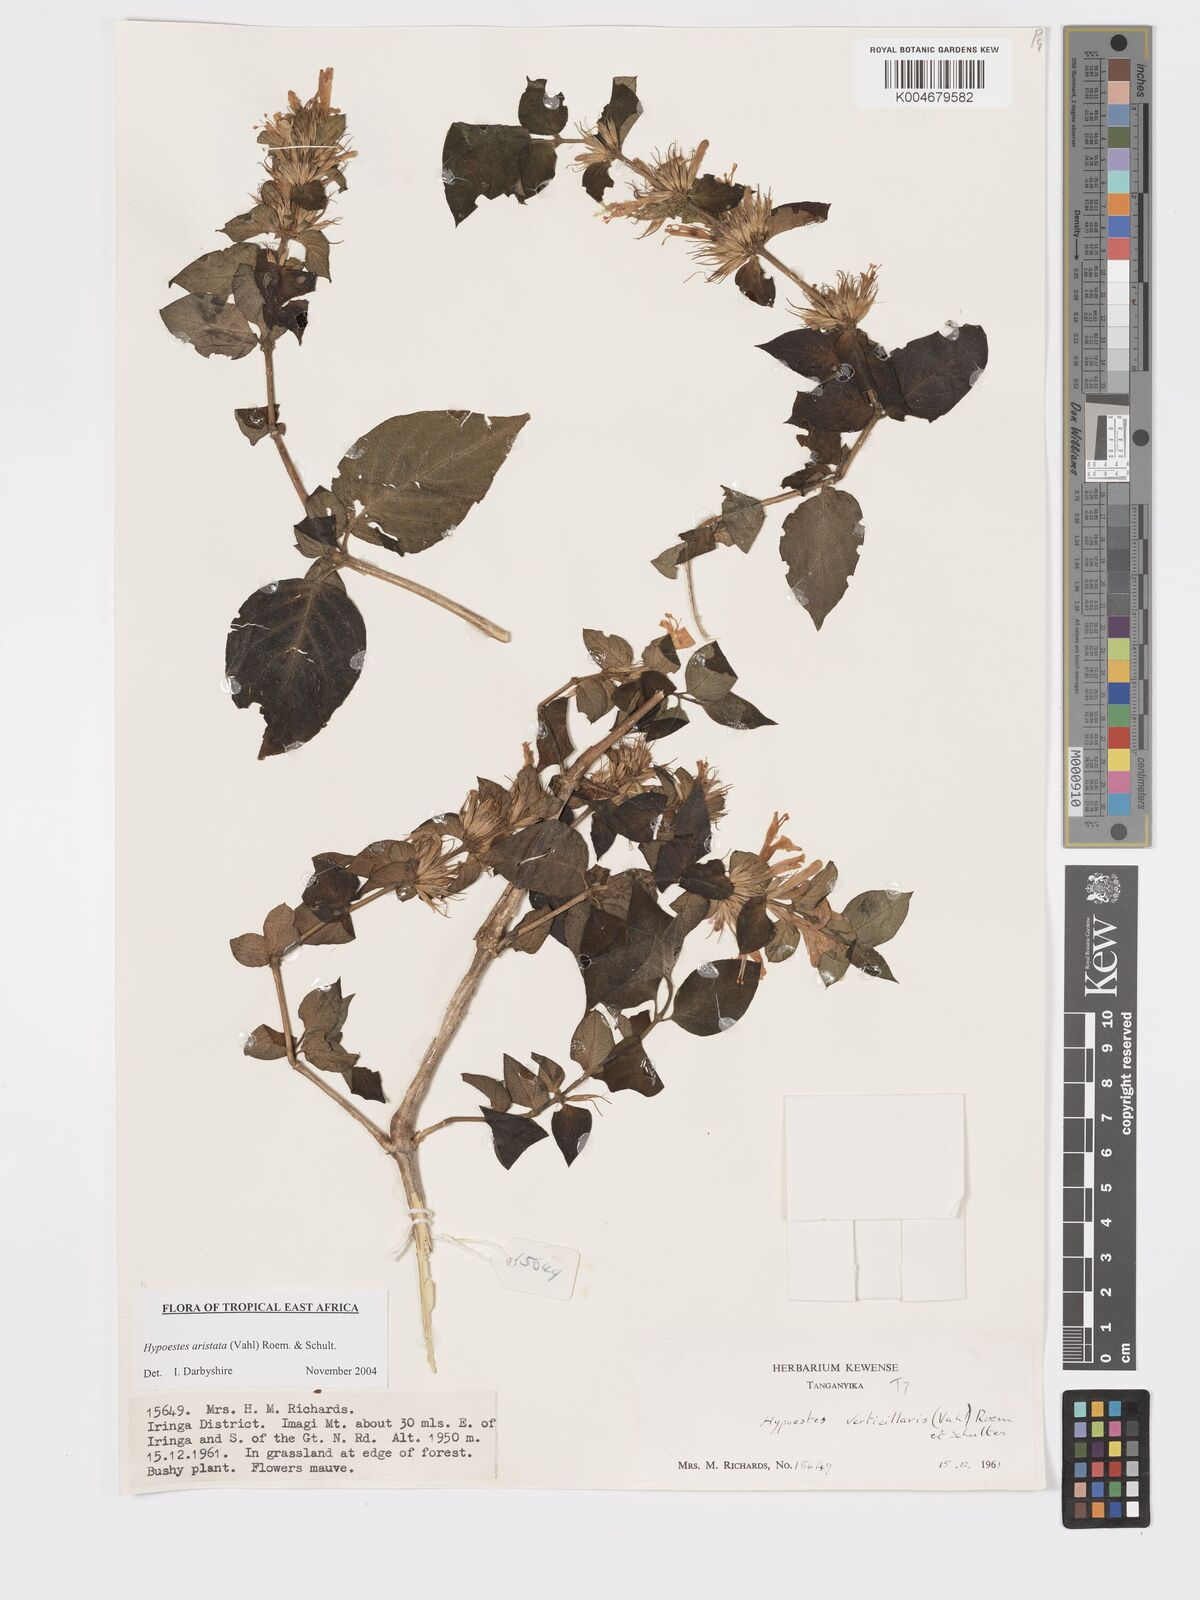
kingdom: Plantae
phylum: Tracheophyta
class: Magnoliopsida
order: Lamiales
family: Acanthaceae
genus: Hypoestes
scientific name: Hypoestes aristata
